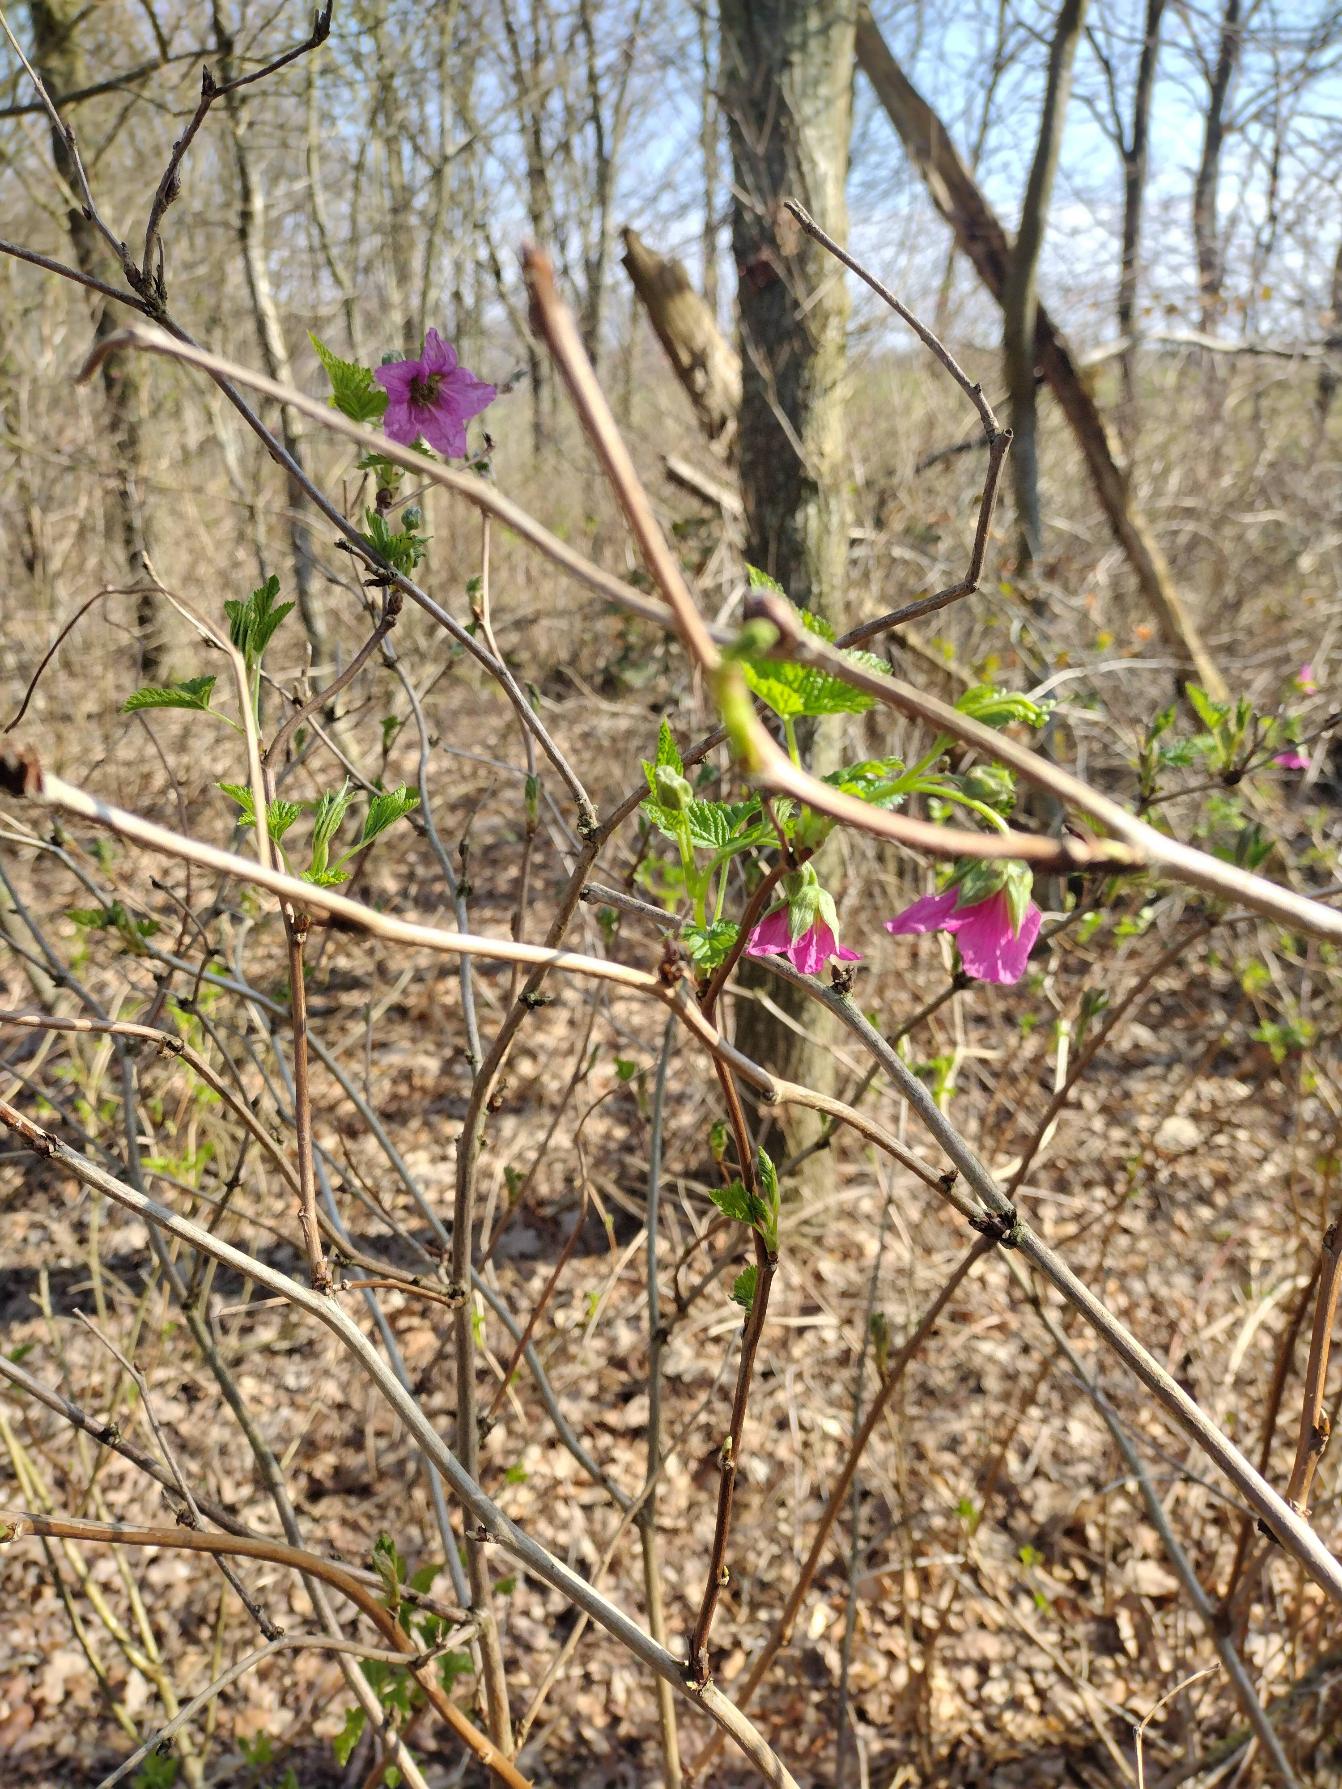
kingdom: Plantae
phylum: Tracheophyta
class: Magnoliopsida
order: Rosales
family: Rosaceae
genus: Rubus
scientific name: Rubus spectabilis
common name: Laksebær
